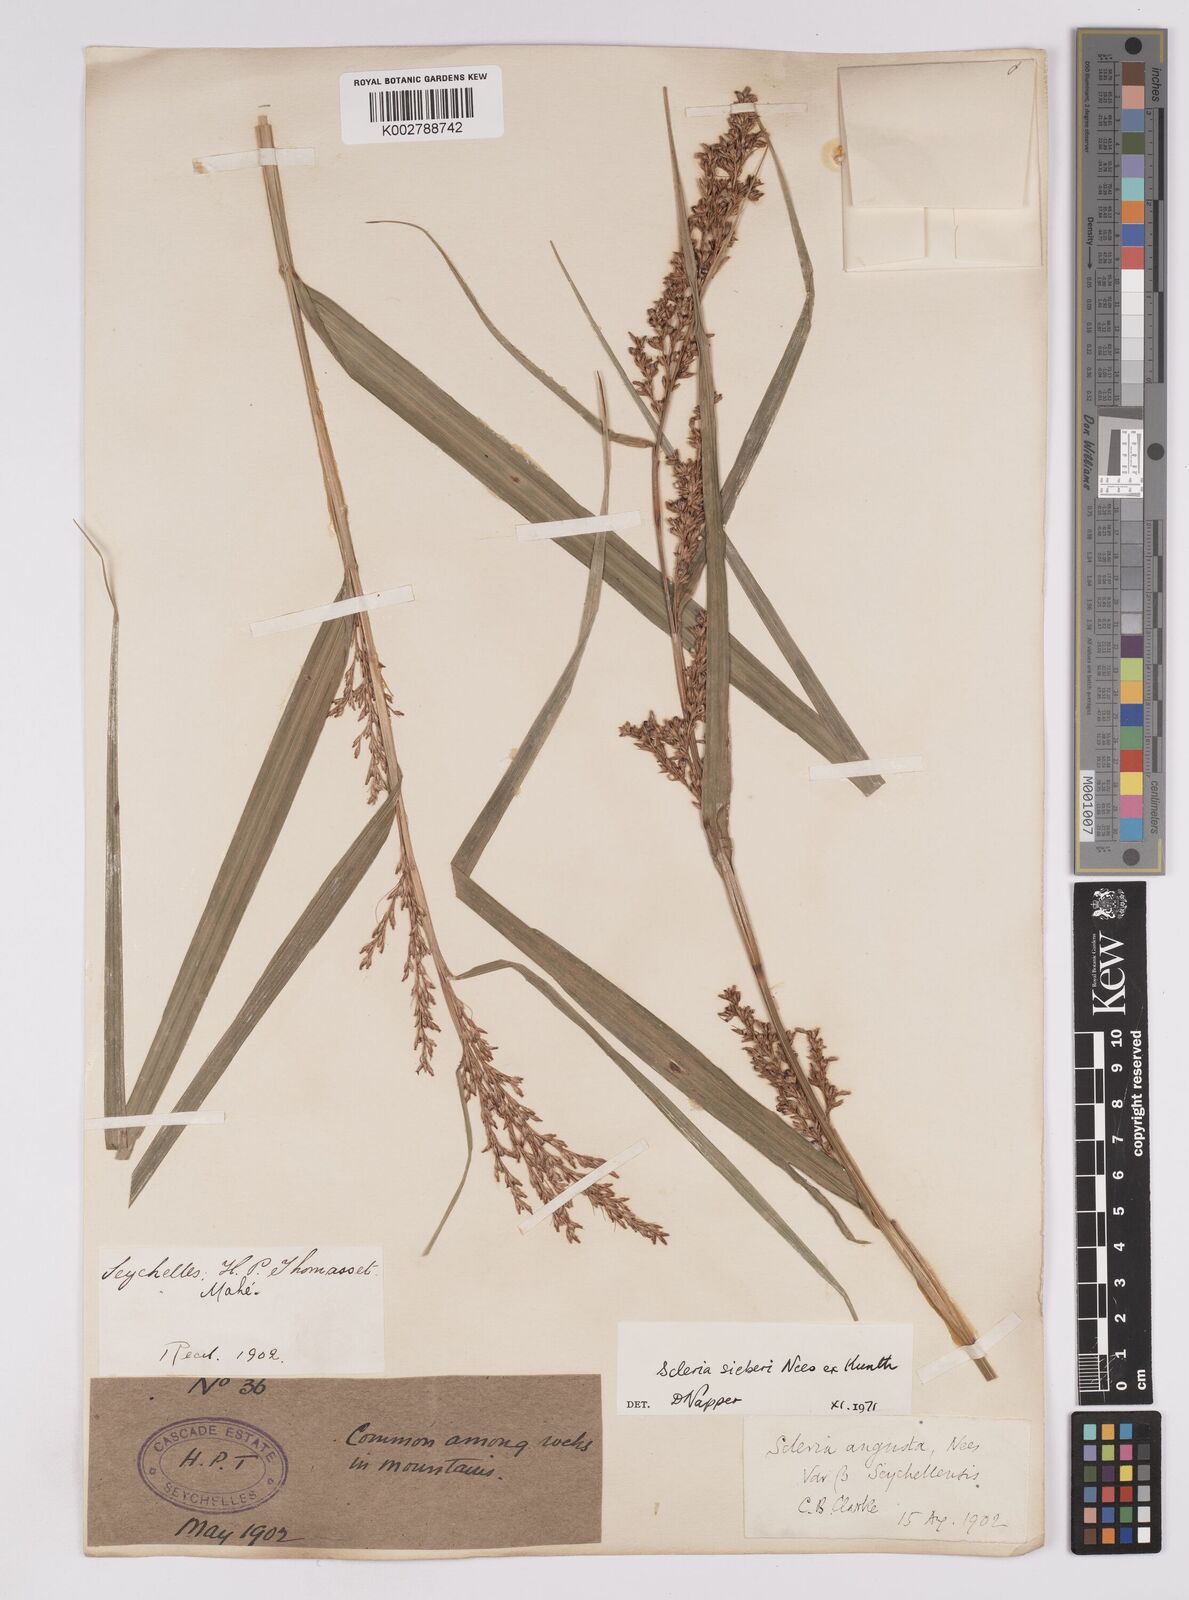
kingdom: Plantae
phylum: Tracheophyta
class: Liliopsida
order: Poales
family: Cyperaceae
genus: Scleria
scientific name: Scleria gaertneri
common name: Cortadera blanca
